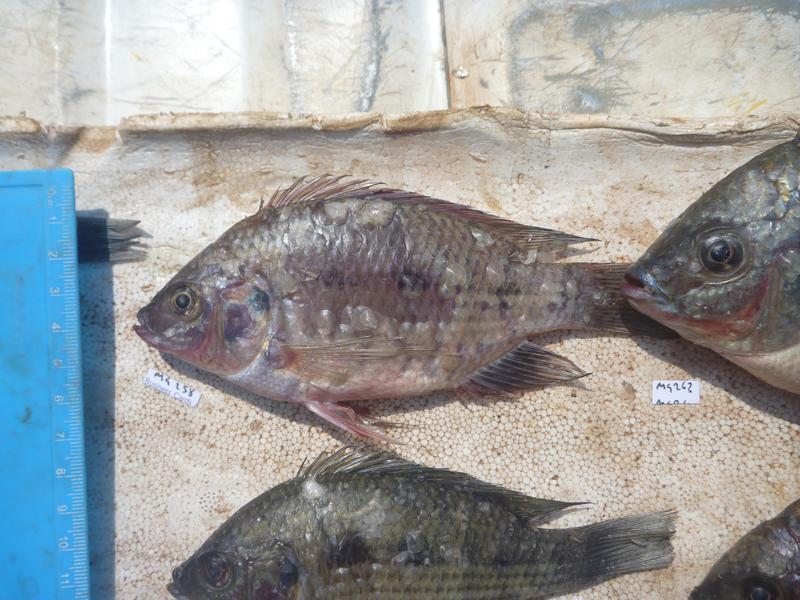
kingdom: Animalia
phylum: Chordata
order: Perciformes
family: Cichlidae
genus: Oreochromis
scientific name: Oreochromis upembae
